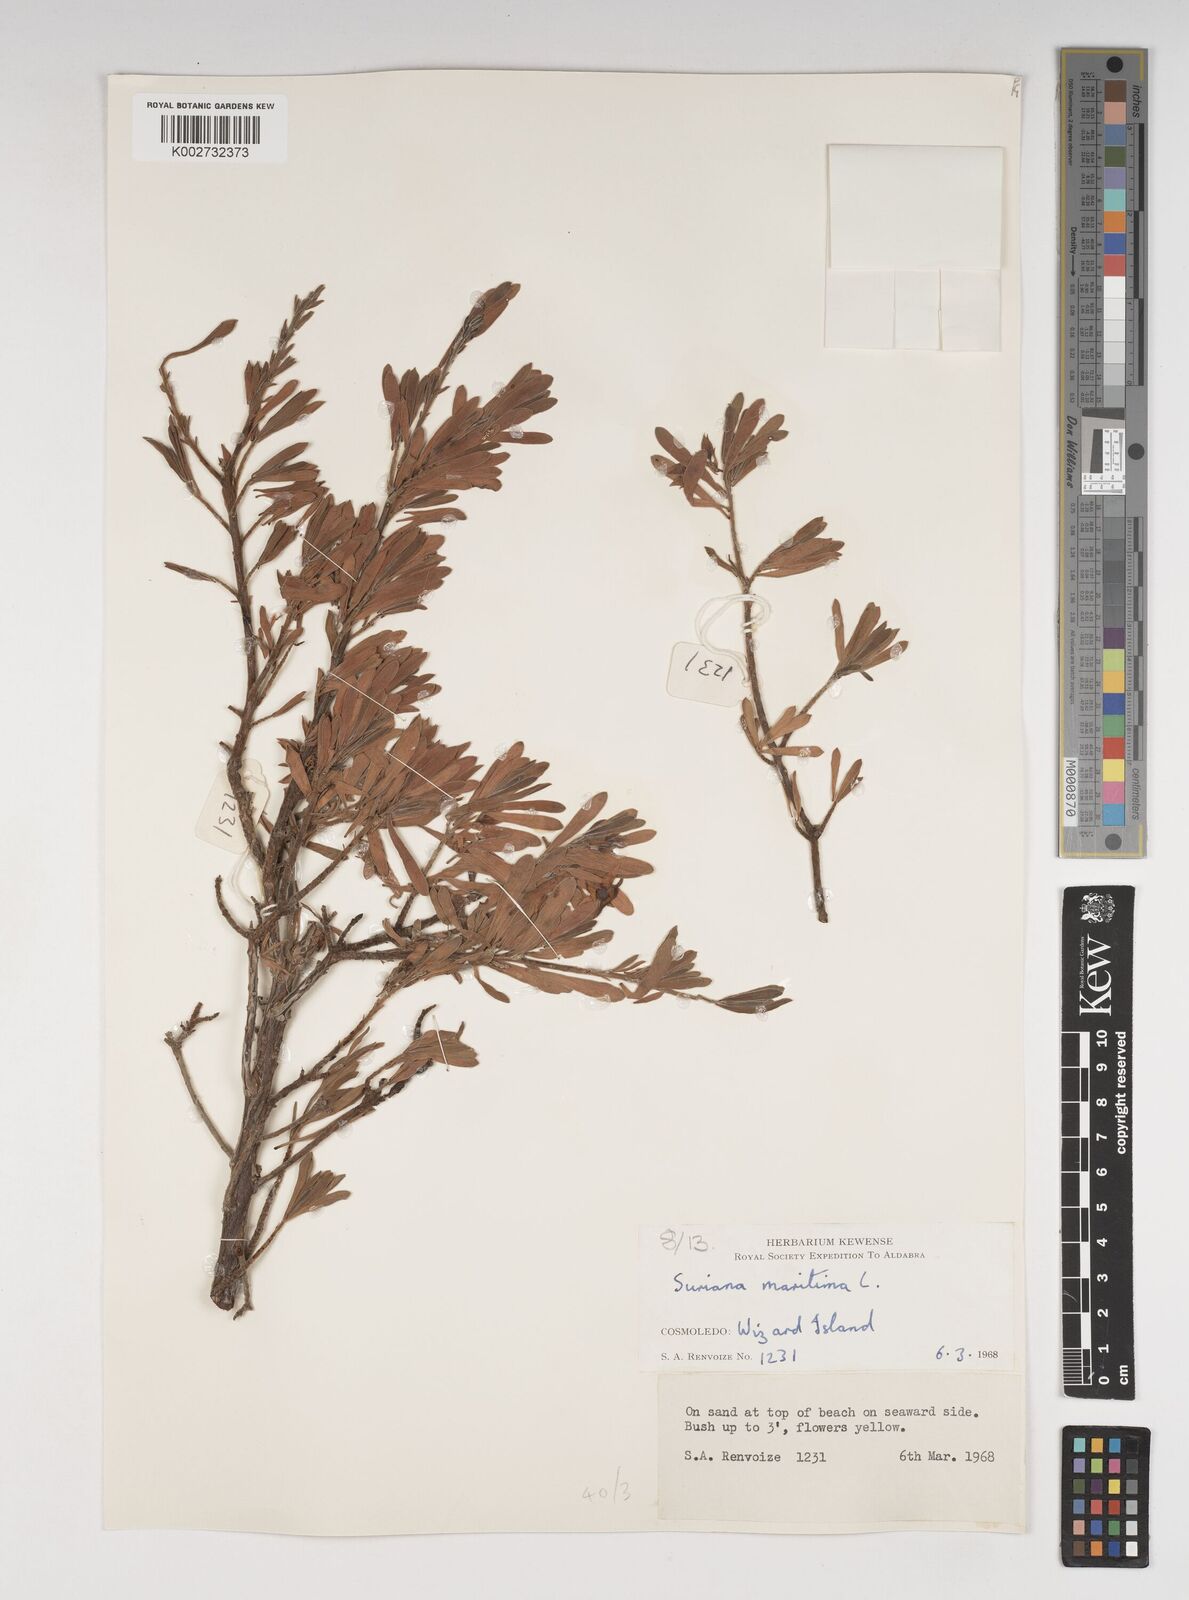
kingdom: Plantae
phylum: Tracheophyta
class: Magnoliopsida
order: Fabales
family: Surianaceae
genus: Suriana
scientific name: Suriana maritima
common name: Bay-cedar
